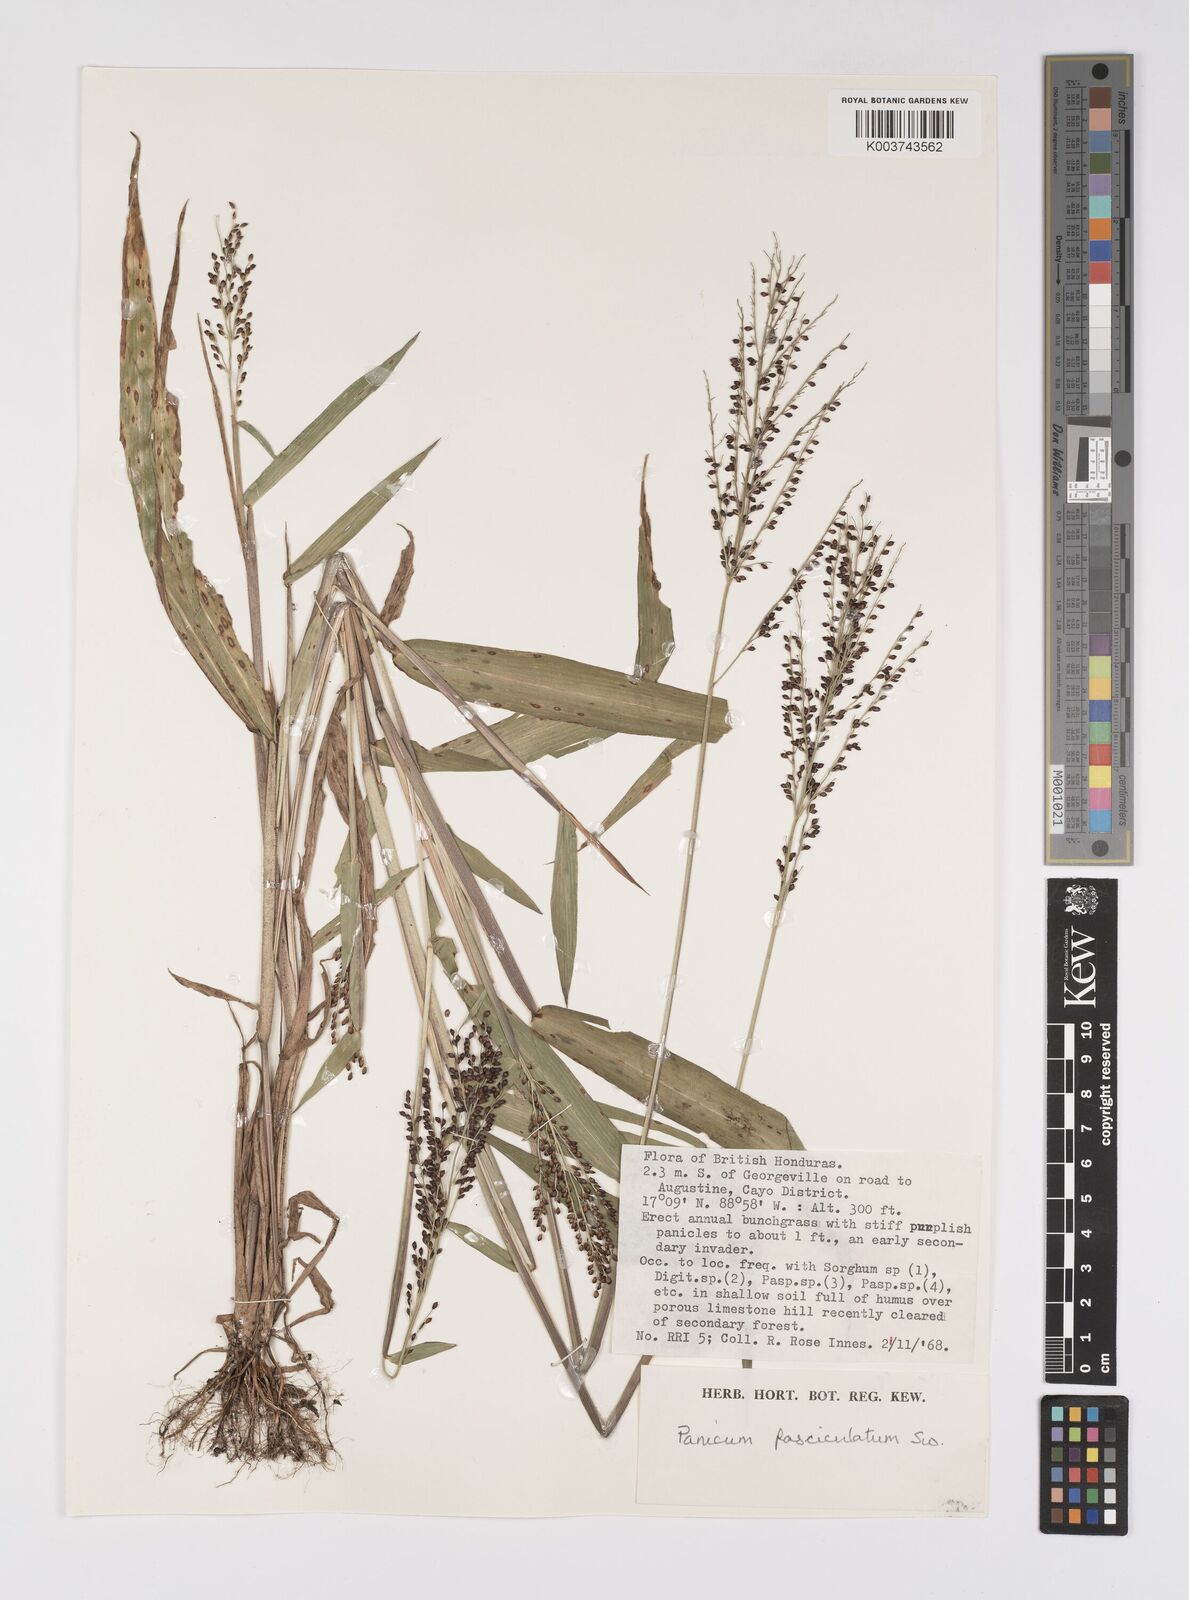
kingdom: Plantae
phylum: Tracheophyta
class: Liliopsida
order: Poales
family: Poaceae
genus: Urochloa
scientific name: Urochloa fusca
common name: Browntop signal grass
